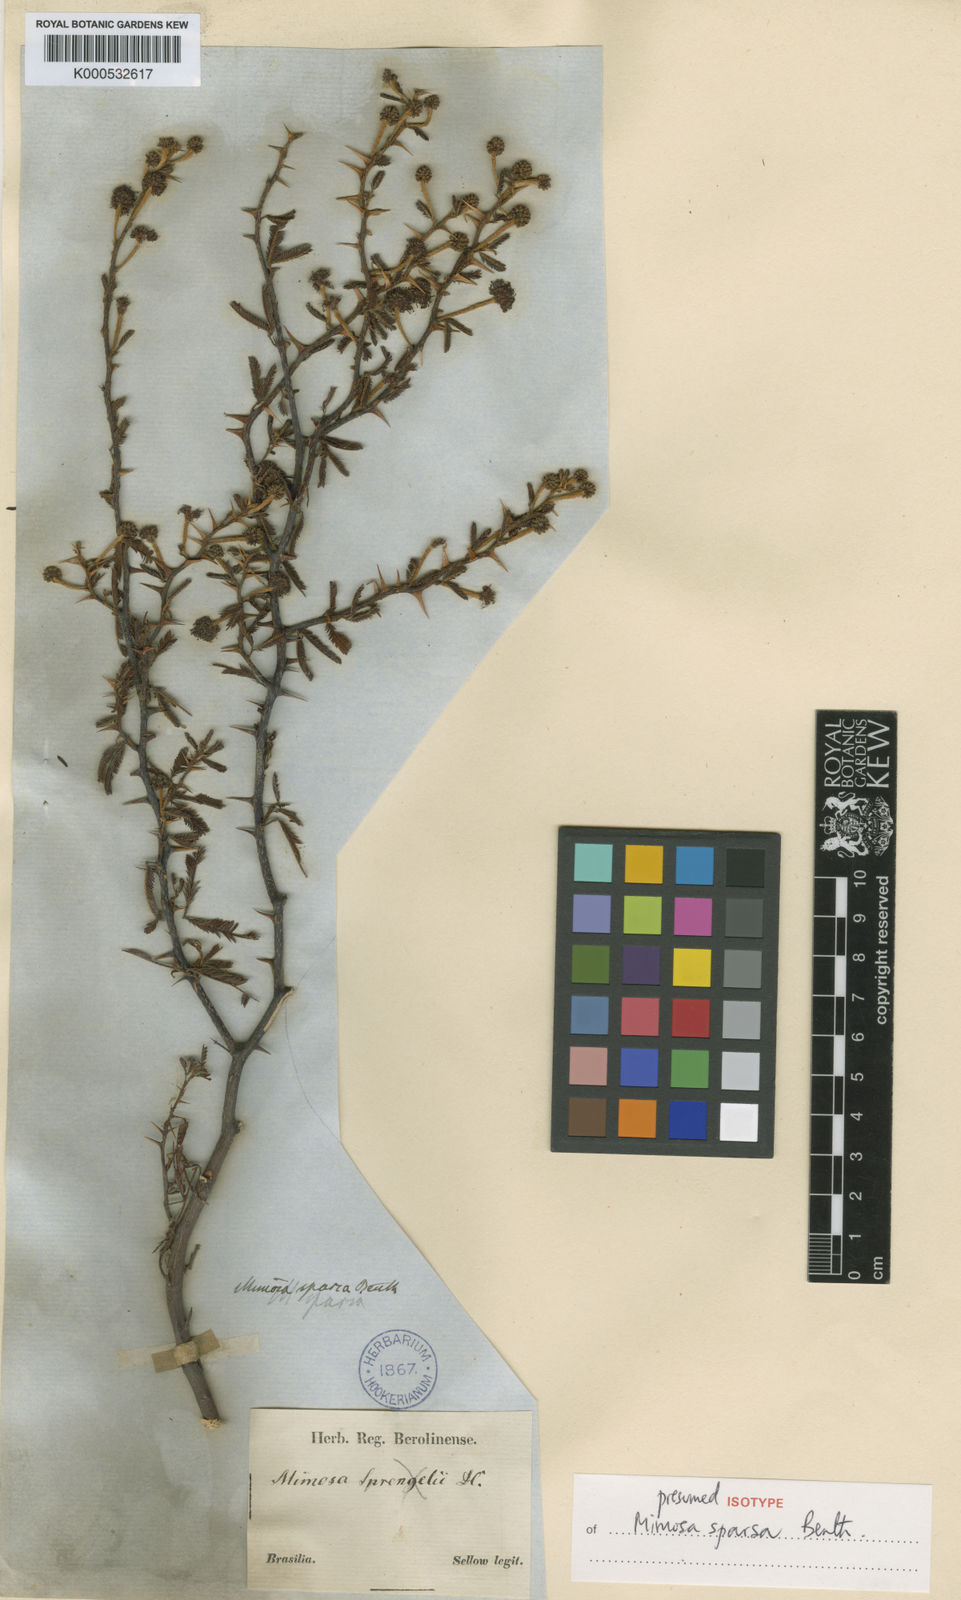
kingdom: Plantae
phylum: Tracheophyta
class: Magnoliopsida
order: Fabales
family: Fabaceae
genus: Mimosa
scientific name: Mimosa sparsa
